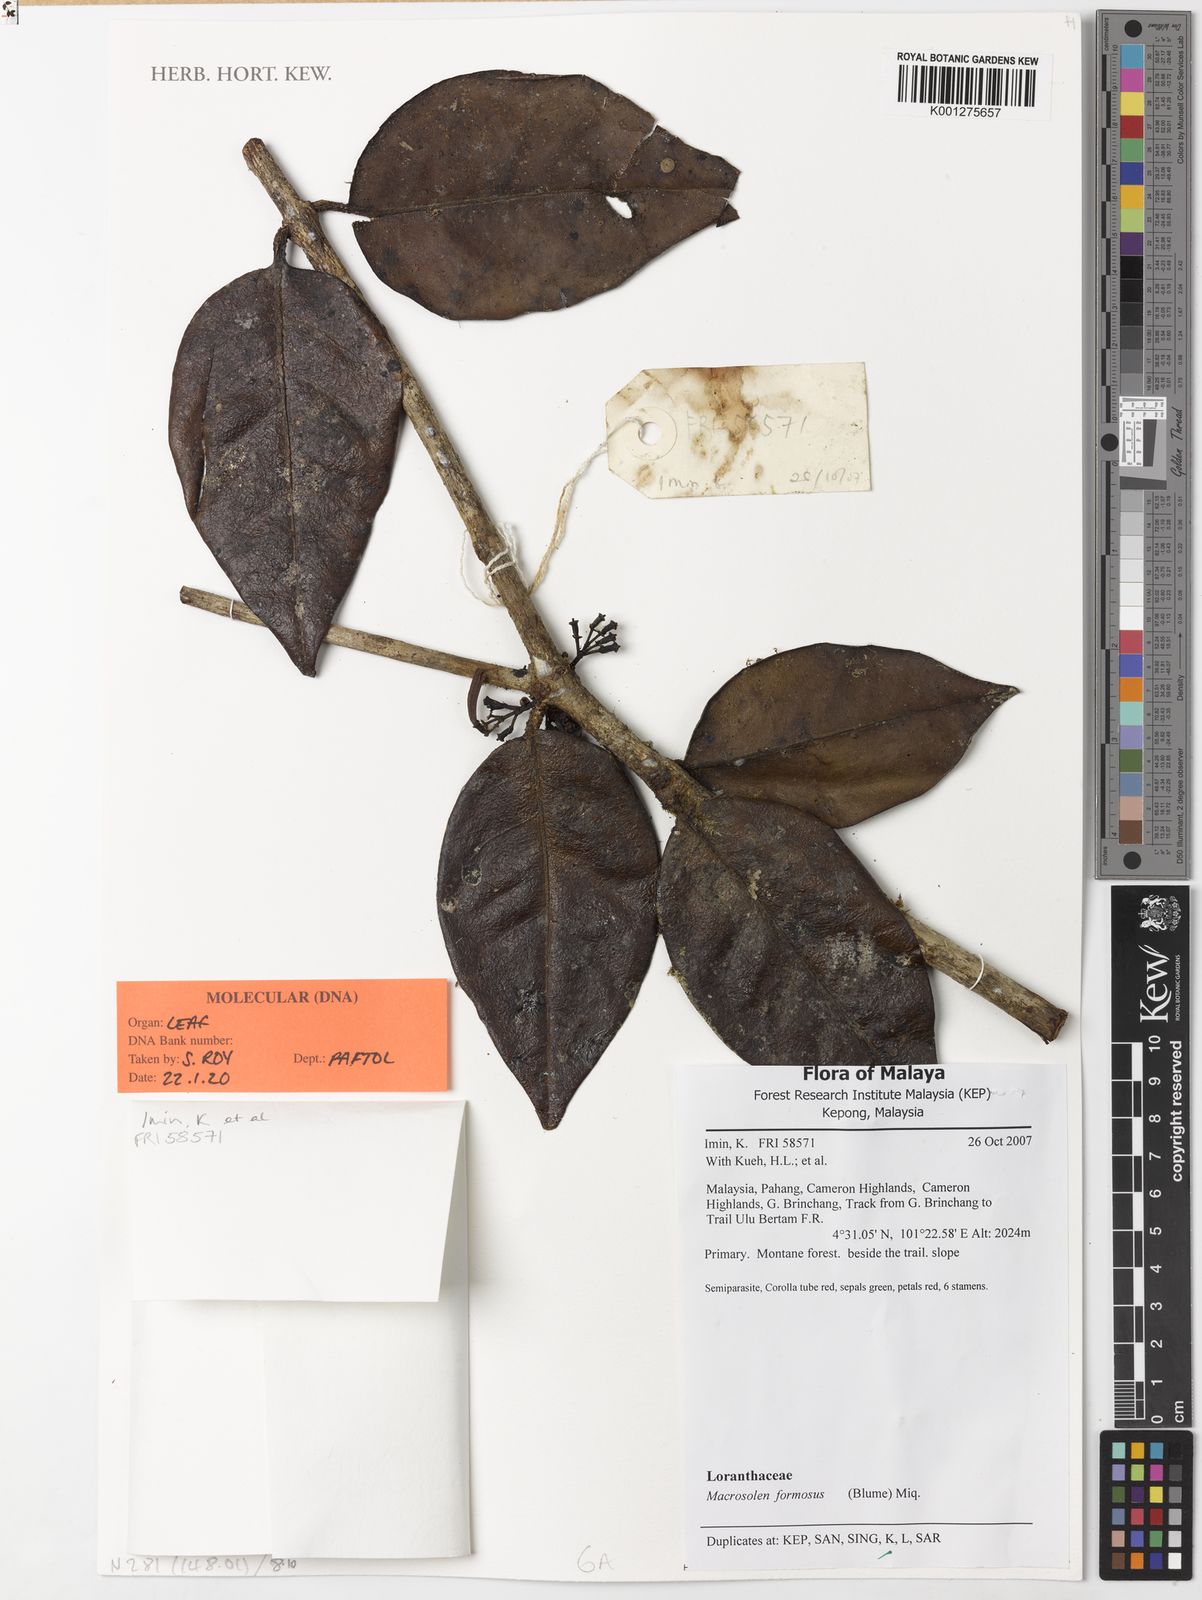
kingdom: Plantae
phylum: Tracheophyta
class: Magnoliopsida
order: Santalales
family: Loranthaceae
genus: Macrosolen
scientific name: Macrosolen formosus
